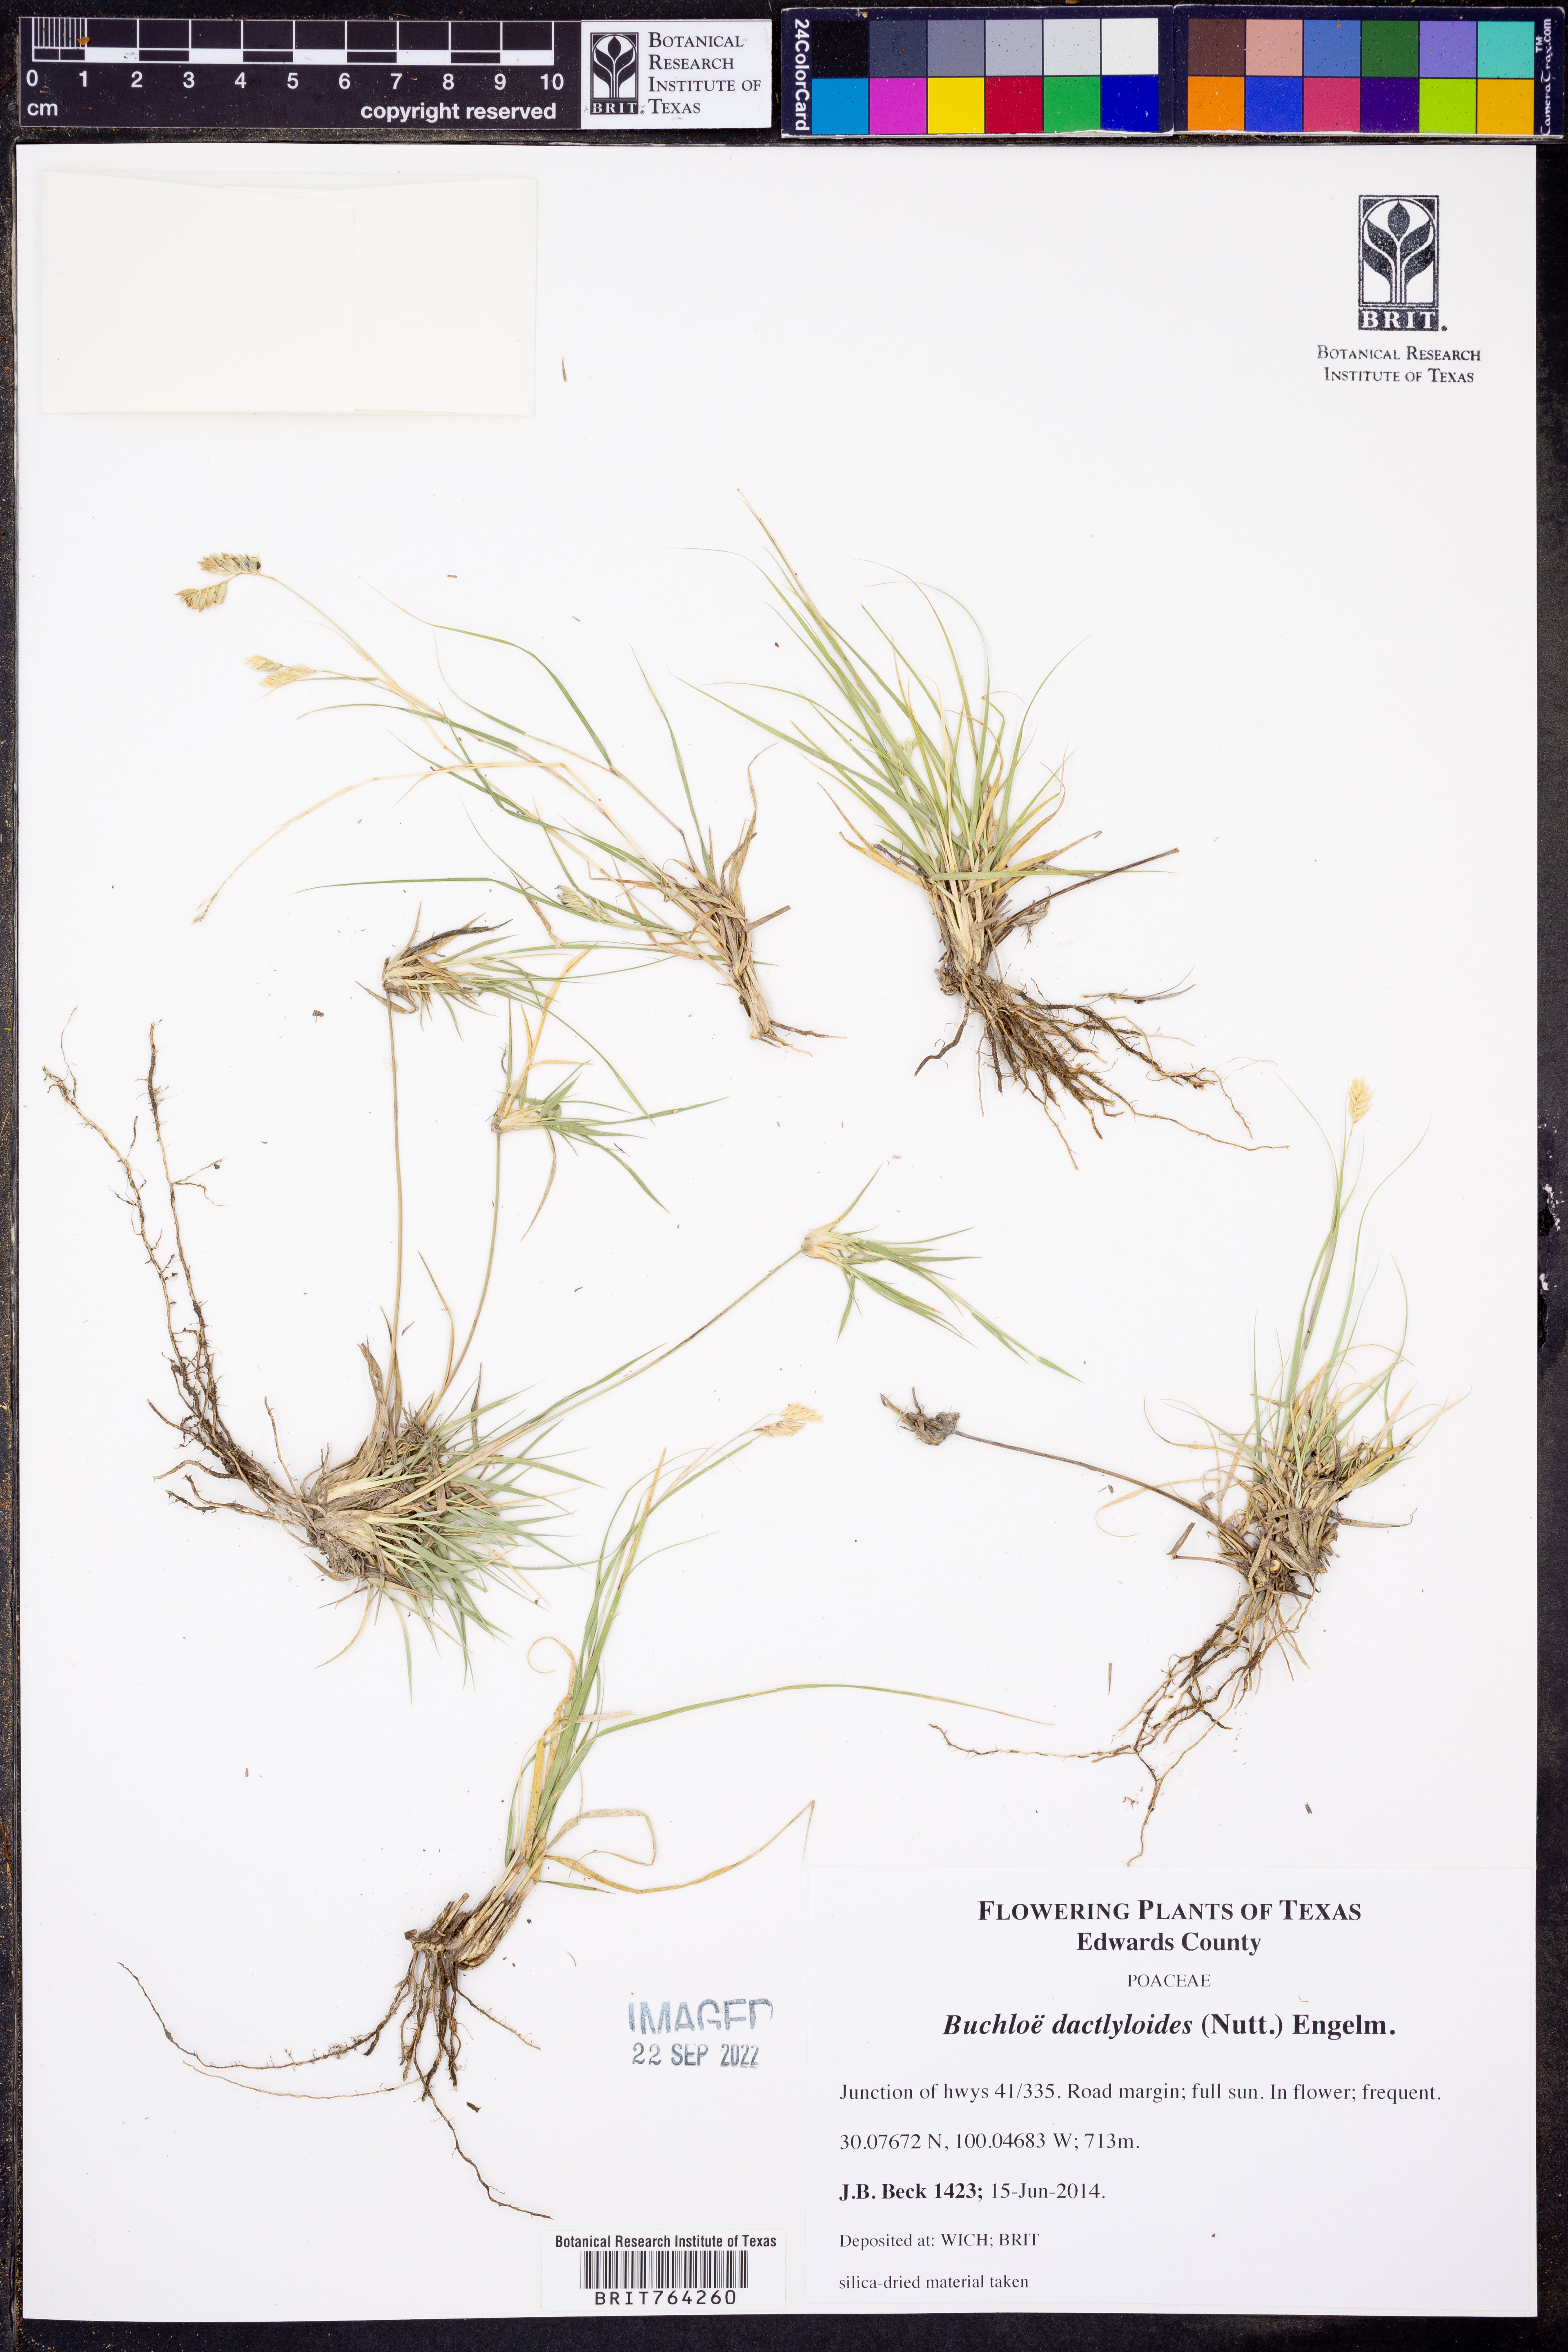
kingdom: Plantae
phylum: Tracheophyta
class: Liliopsida
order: Poales
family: Poaceae
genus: Bouteloua
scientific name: Bouteloua dactyloides
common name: Buffalo grass
